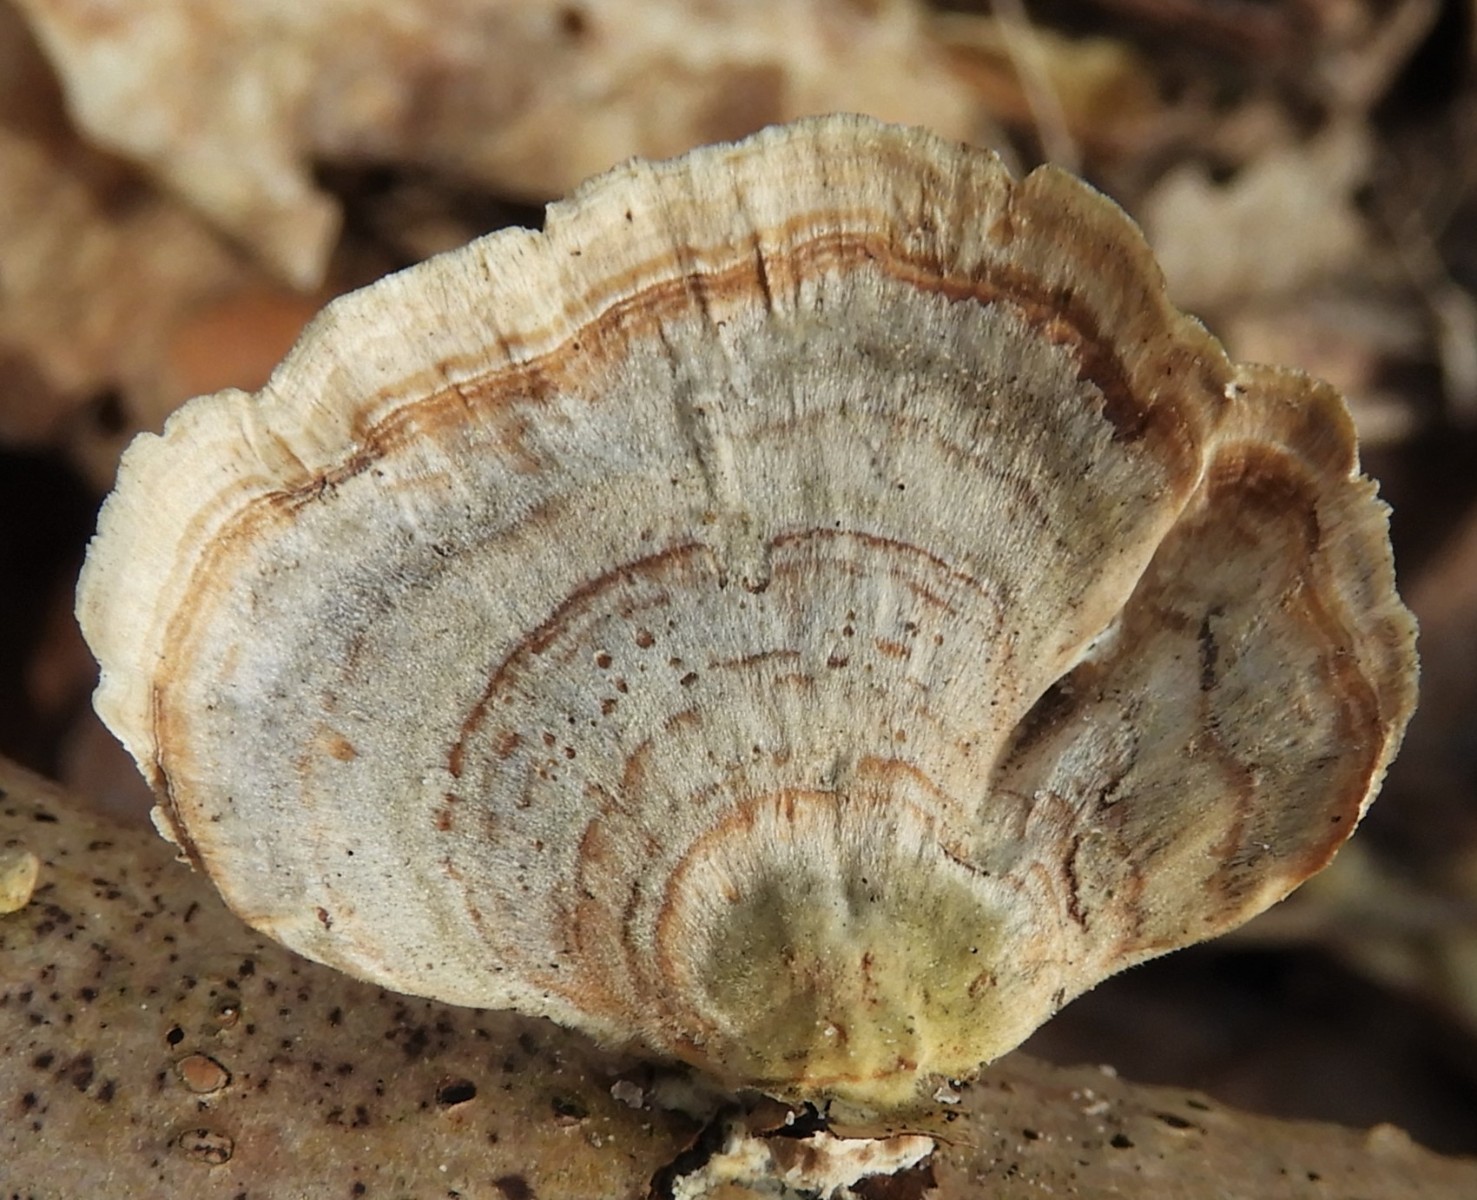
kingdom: Fungi
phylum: Basidiomycota
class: Agaricomycetes
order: Polyporales
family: Polyporaceae
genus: Trametes
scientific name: Trametes ochracea
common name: bæltet læderporesvamp
